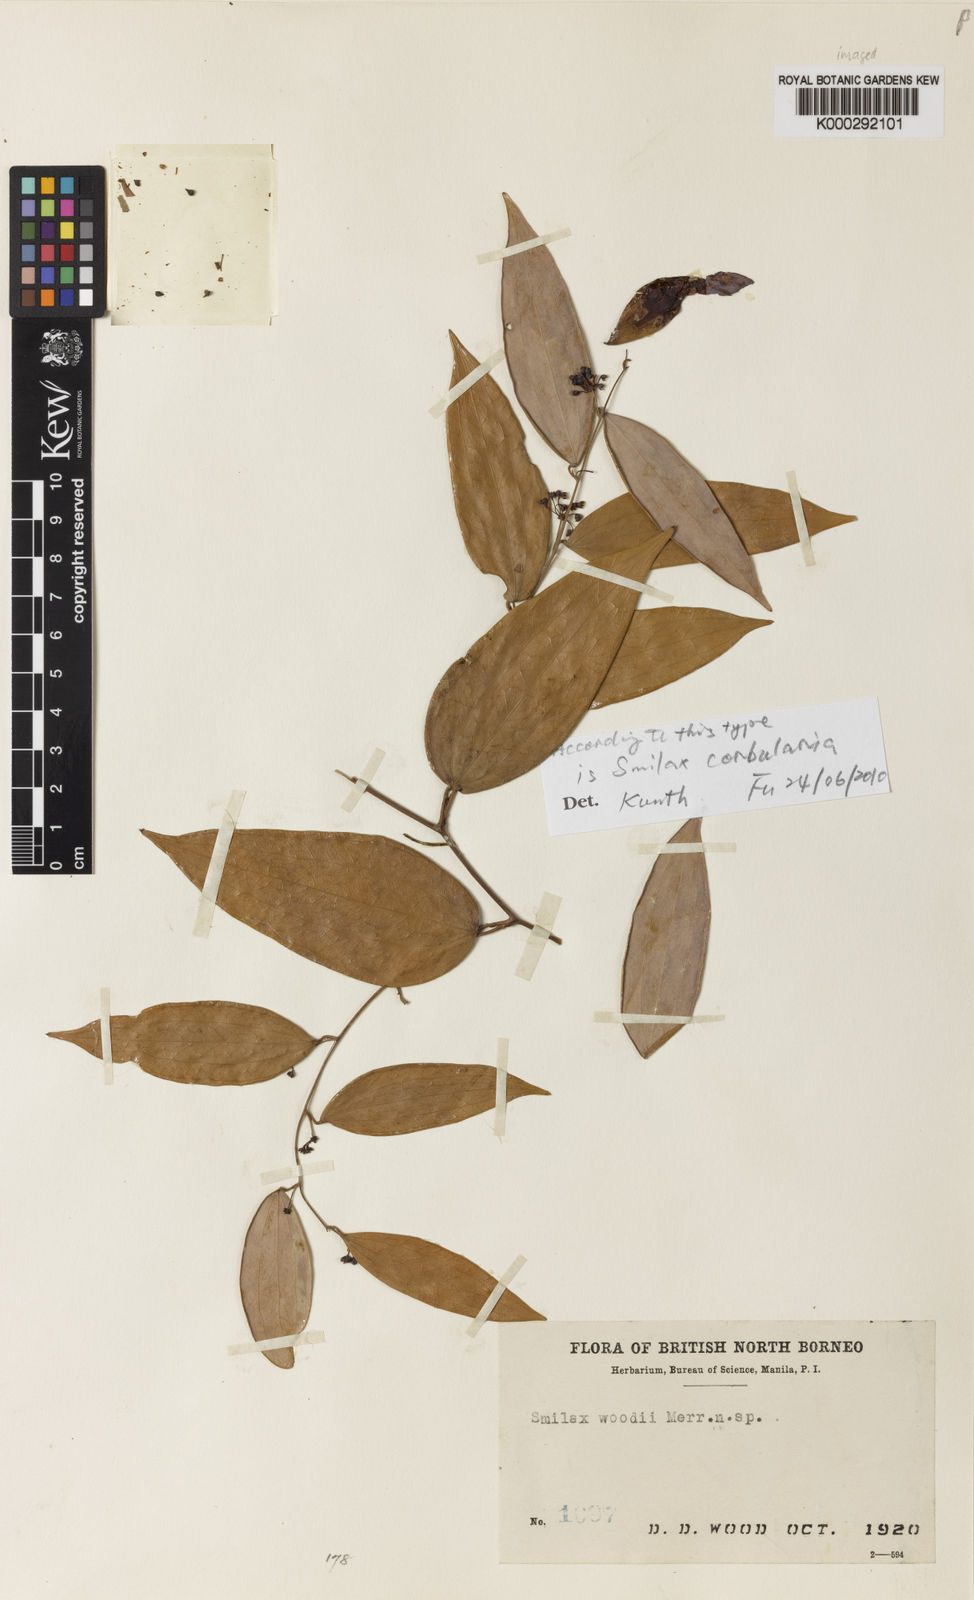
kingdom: Plantae
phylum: Tracheophyta
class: Liliopsida
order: Liliales
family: Smilacaceae
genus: Smilax
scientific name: Smilax corbularia
